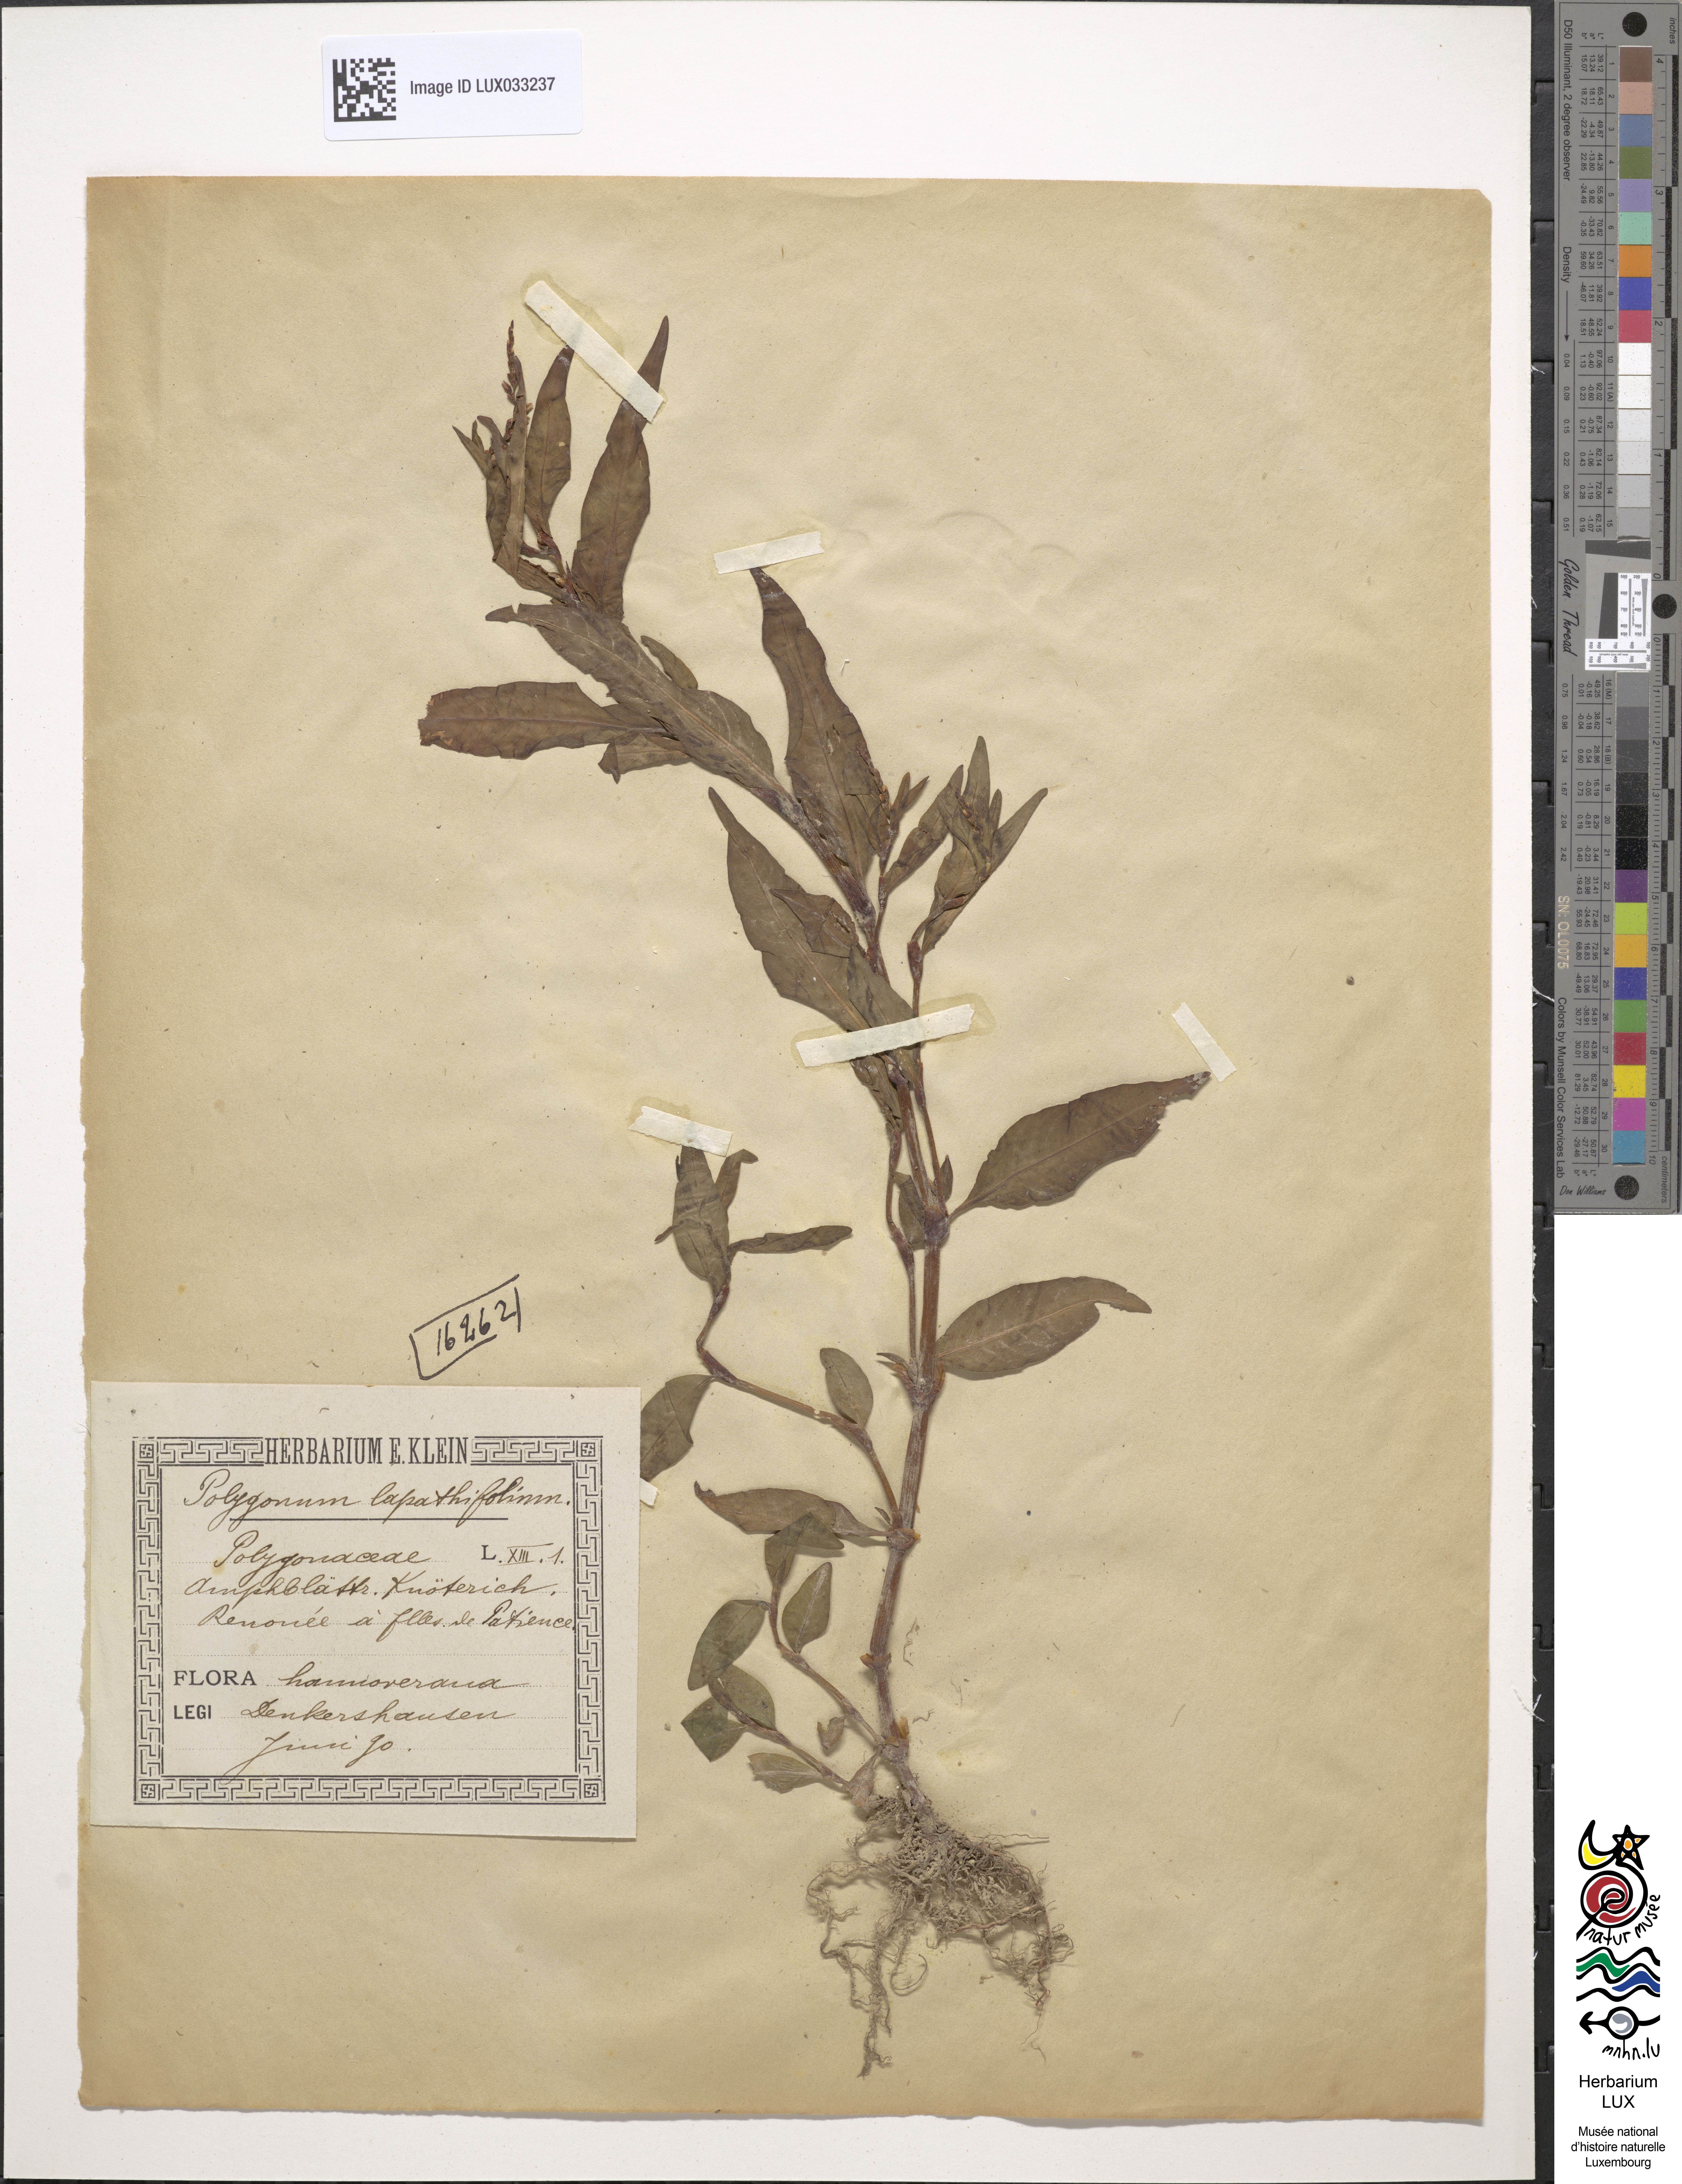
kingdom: Plantae
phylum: Tracheophyta
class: Magnoliopsida
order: Caryophyllales
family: Polygonaceae
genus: Persicaria
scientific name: Persicaria lapathifolia
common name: Curlytop knotweed
